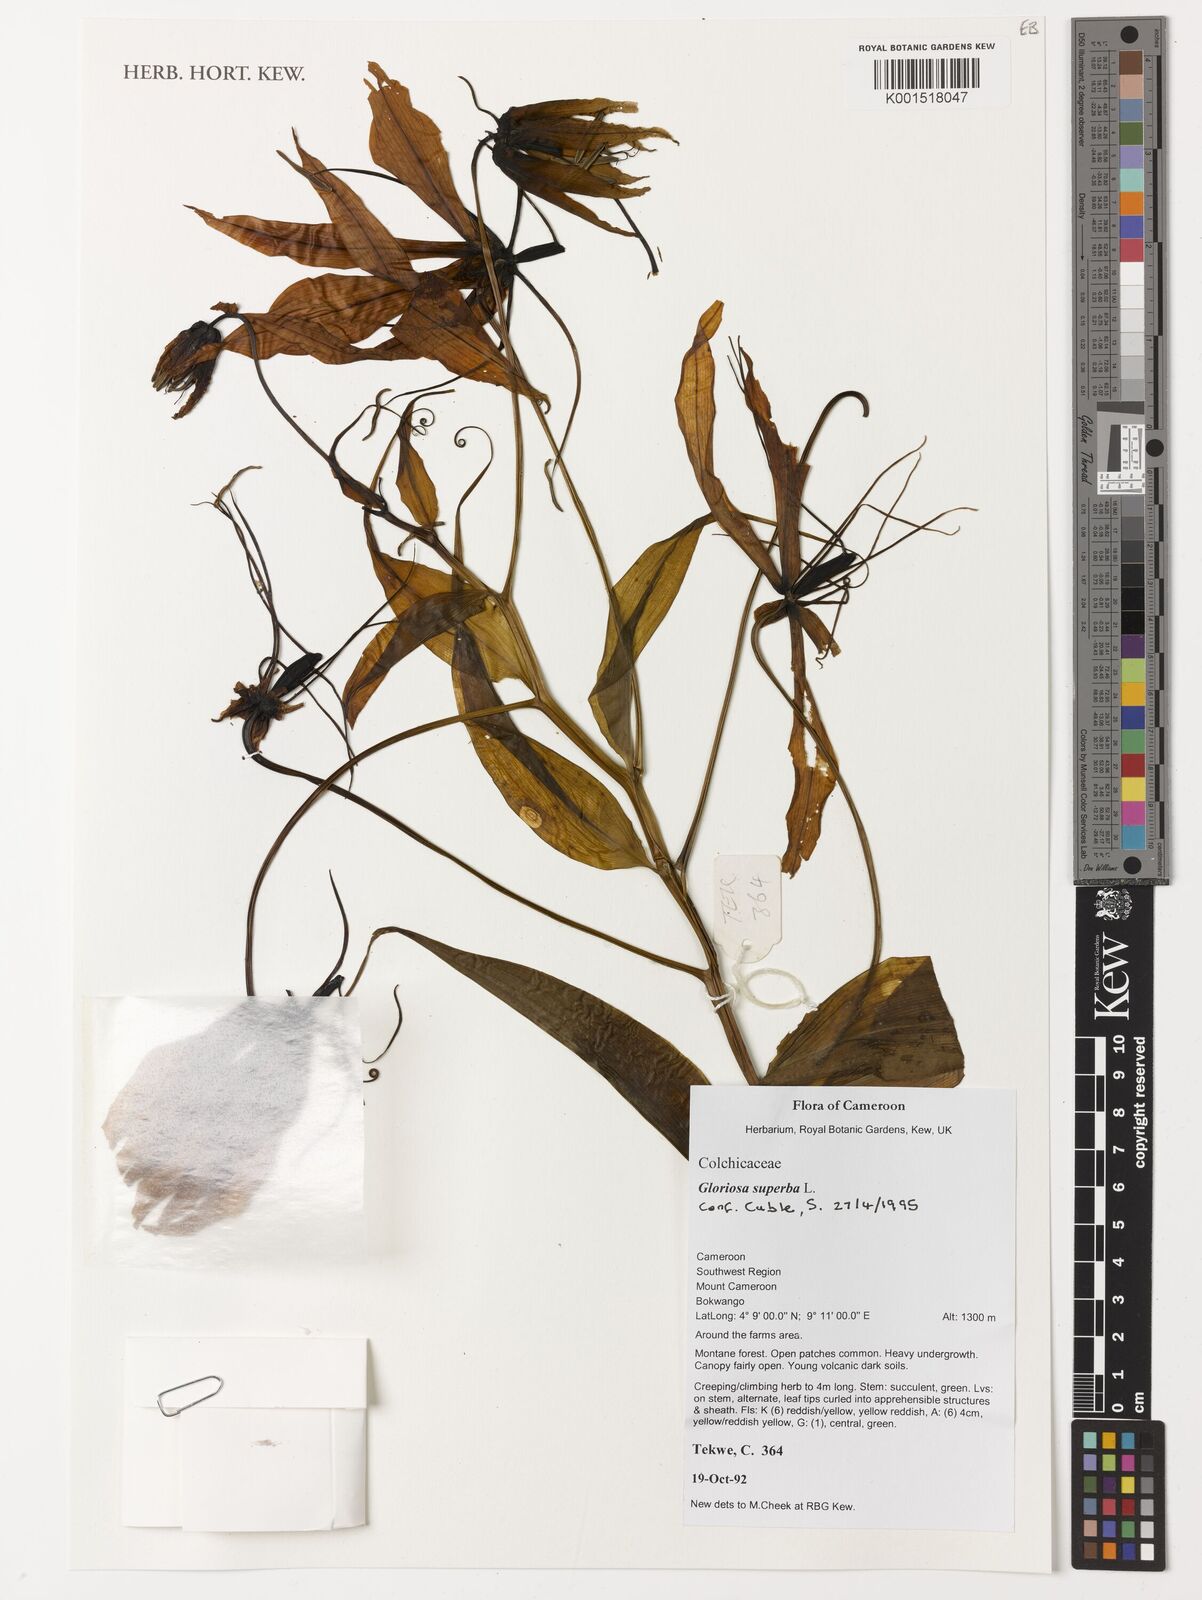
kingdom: Plantae
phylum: Tracheophyta
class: Liliopsida
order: Liliales
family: Colchicaceae
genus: Gloriosa
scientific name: Gloriosa superba
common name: Flame lily
